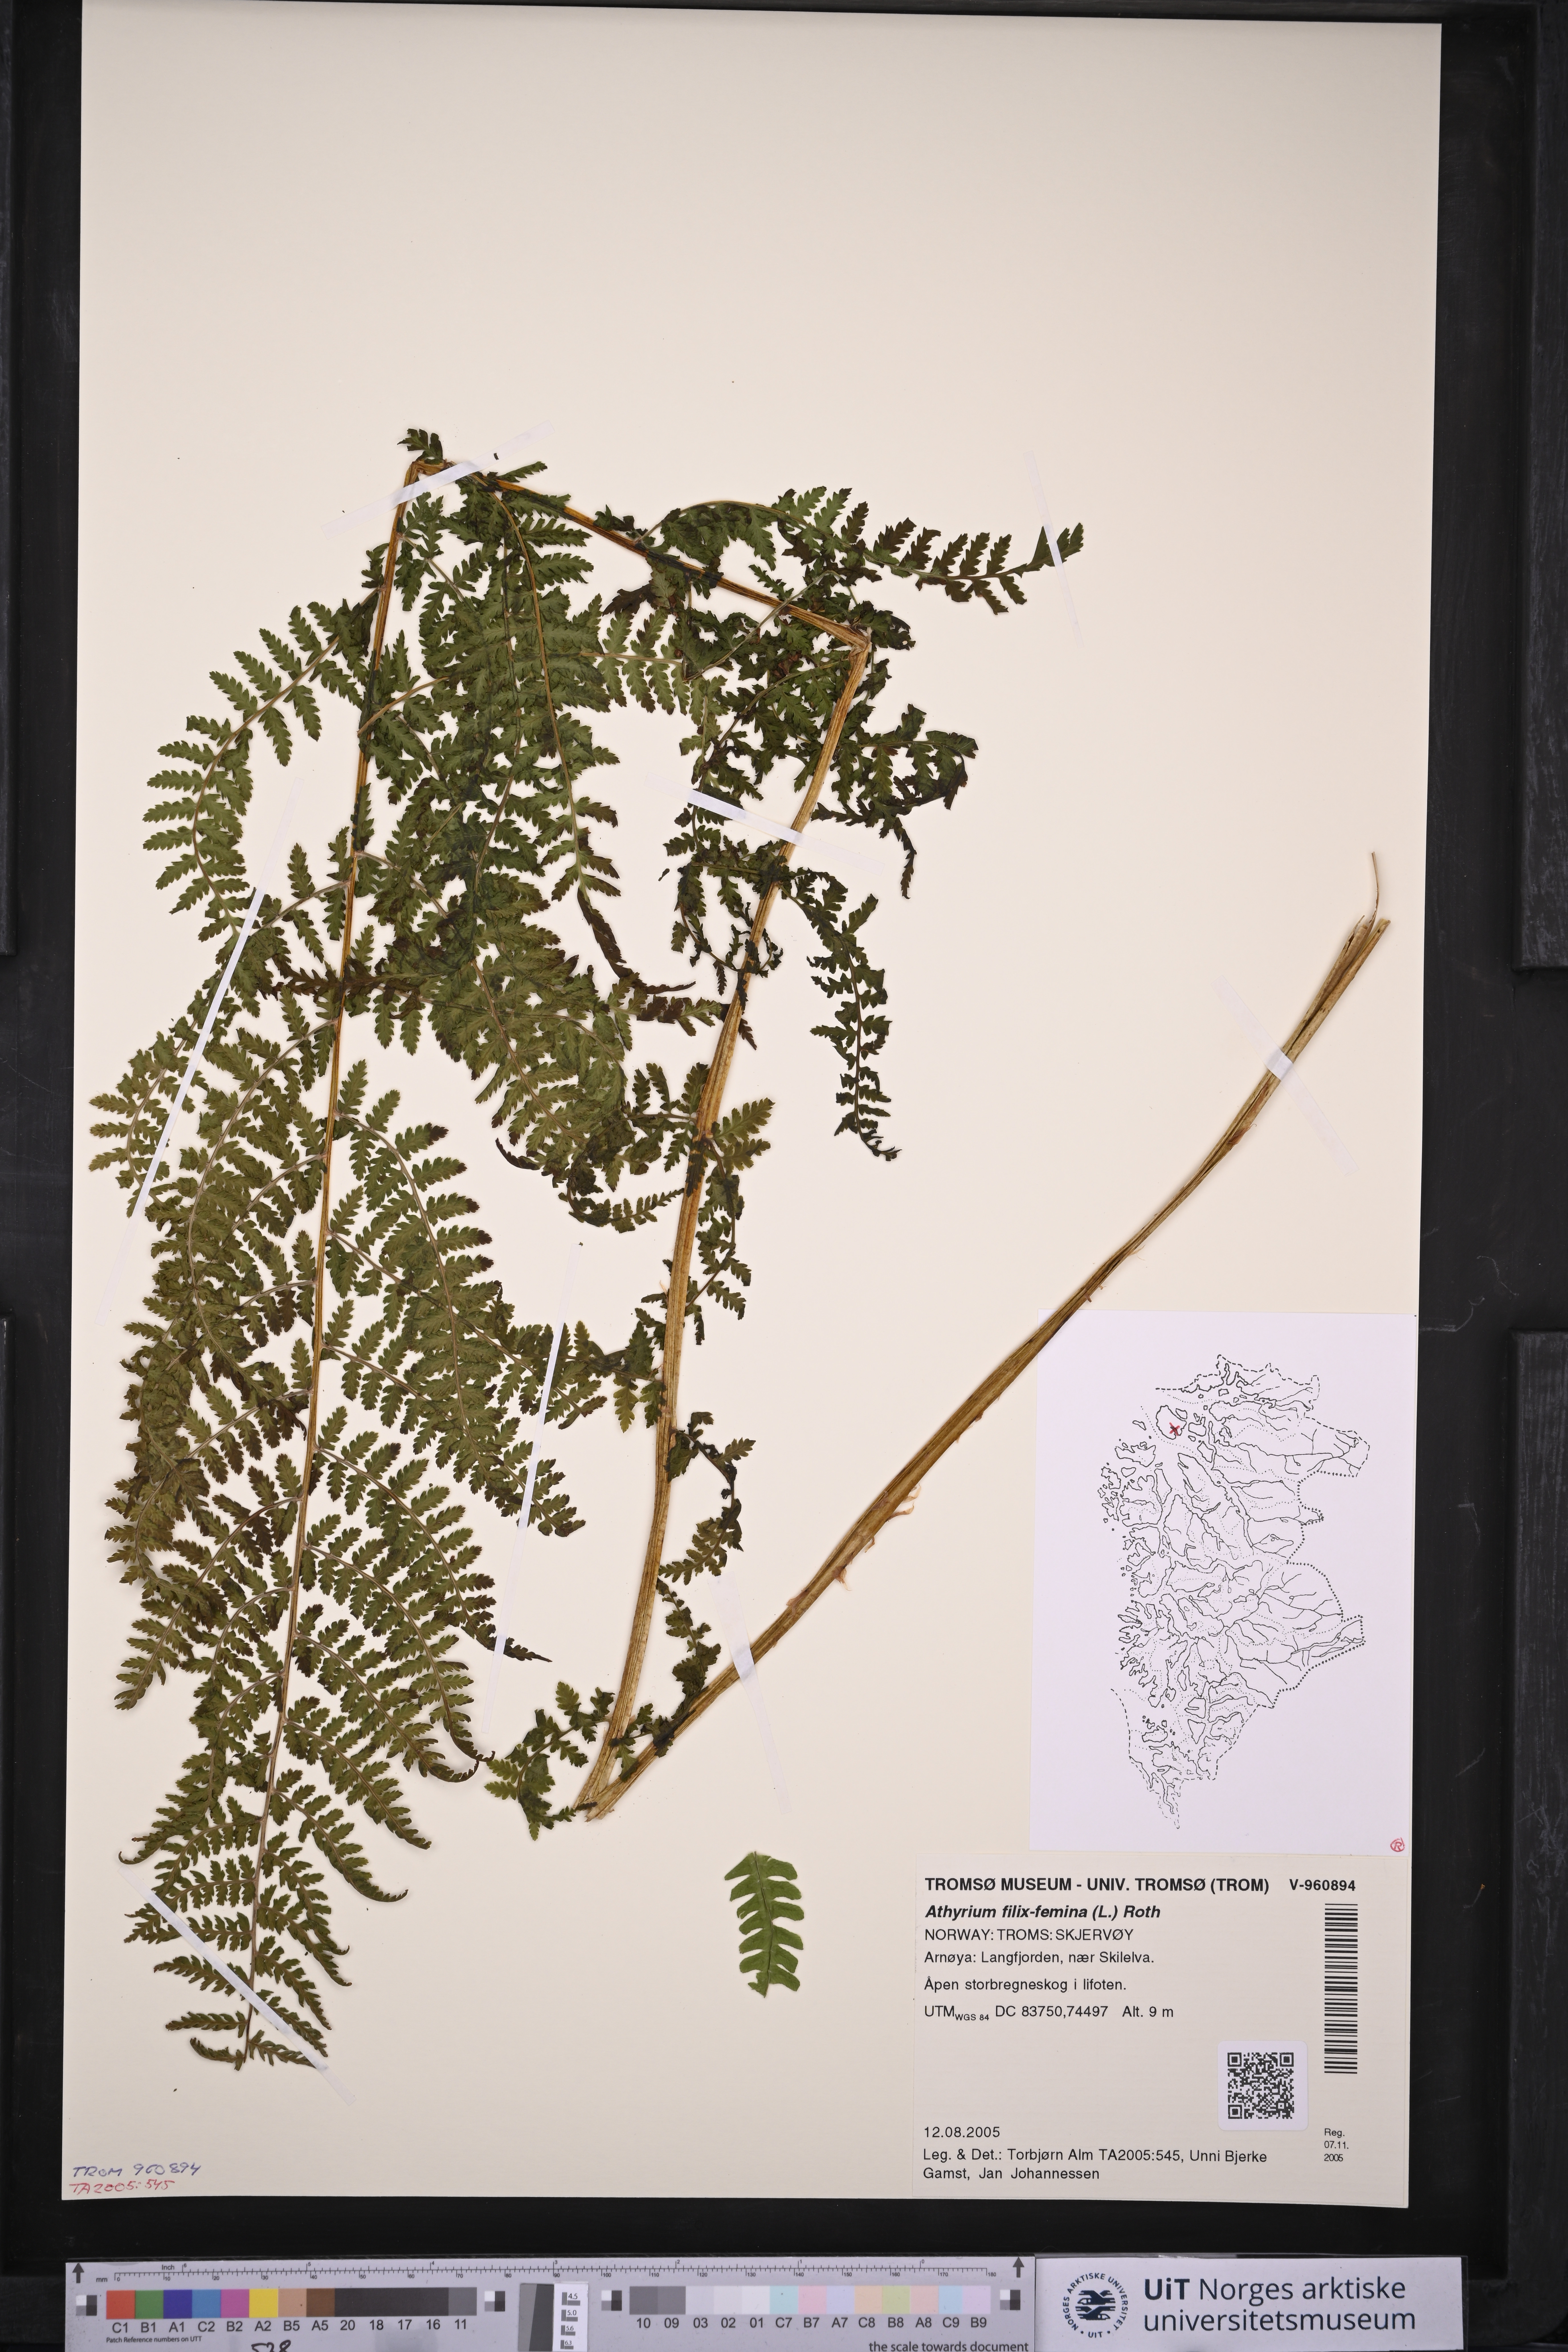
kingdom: Plantae
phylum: Tracheophyta
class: Polypodiopsida
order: Polypodiales
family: Athyriaceae
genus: Athyrium
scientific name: Athyrium filix-femina
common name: Lady fern
